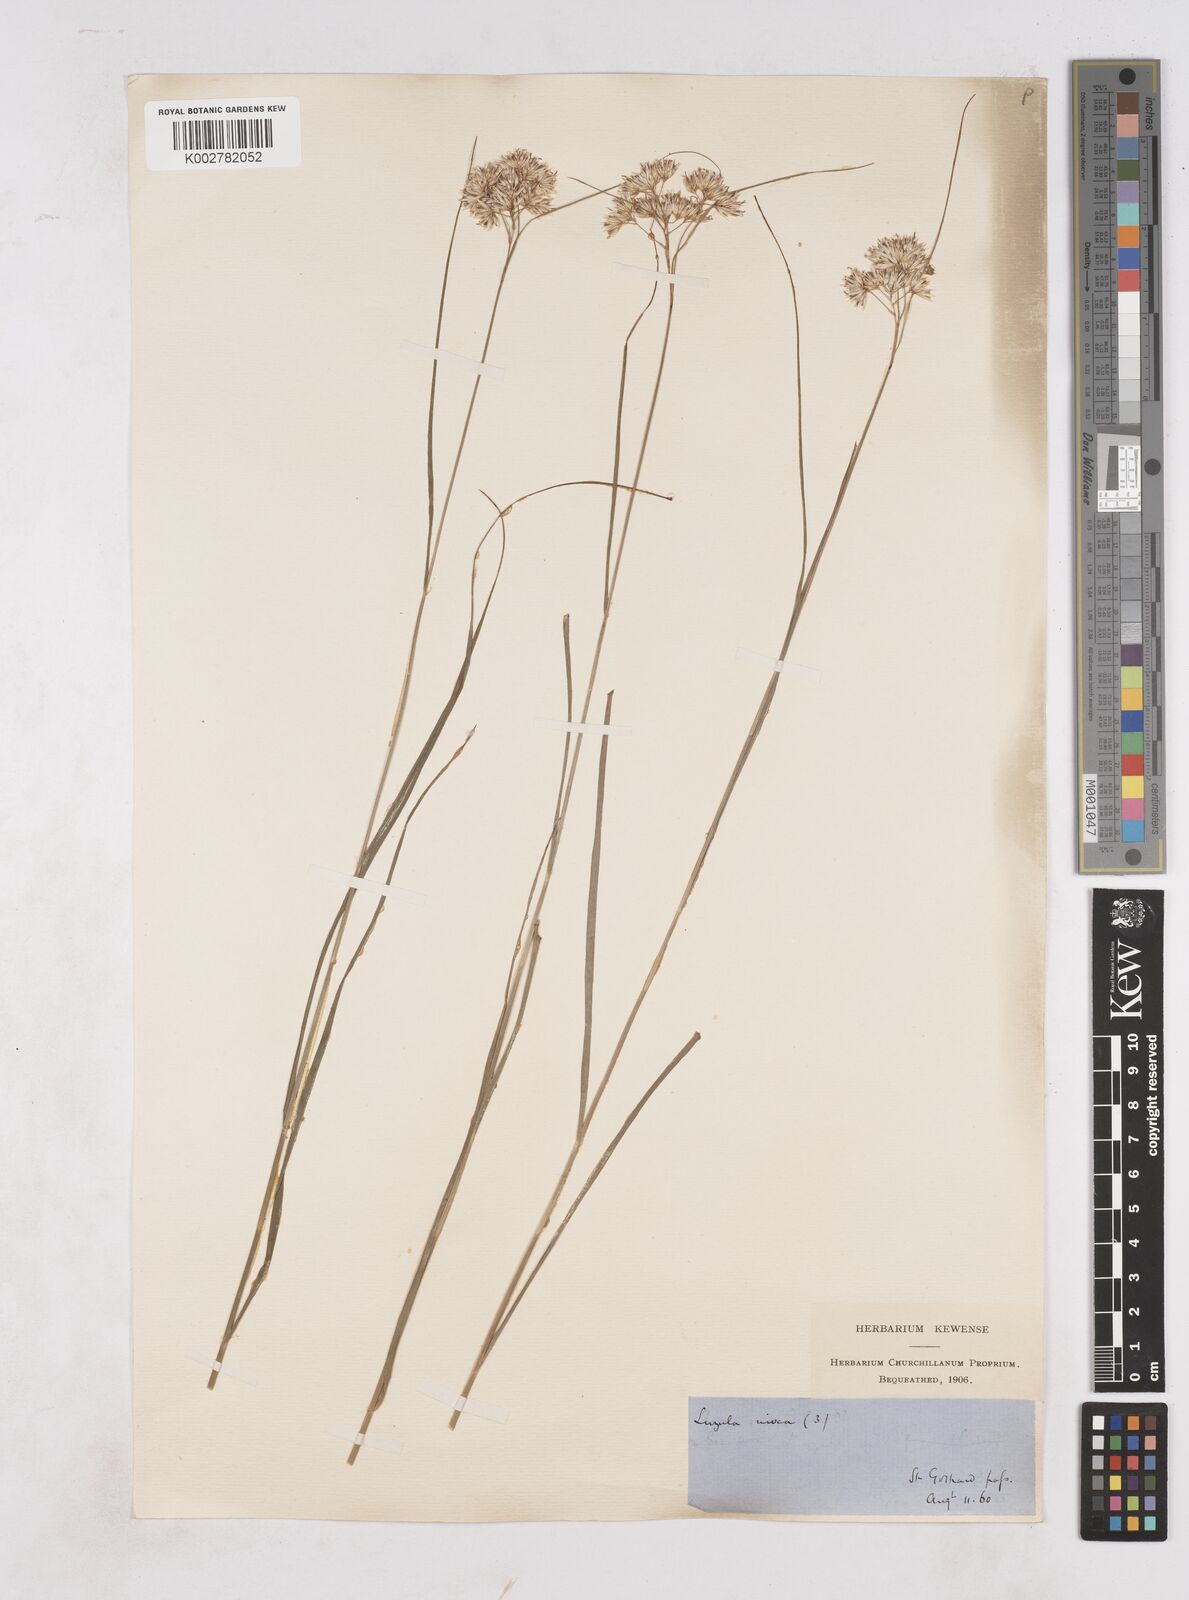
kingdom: Plantae
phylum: Tracheophyta
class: Liliopsida
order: Poales
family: Juncaceae
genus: Luzula
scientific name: Luzula nivea
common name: Snow-white wood-rush
